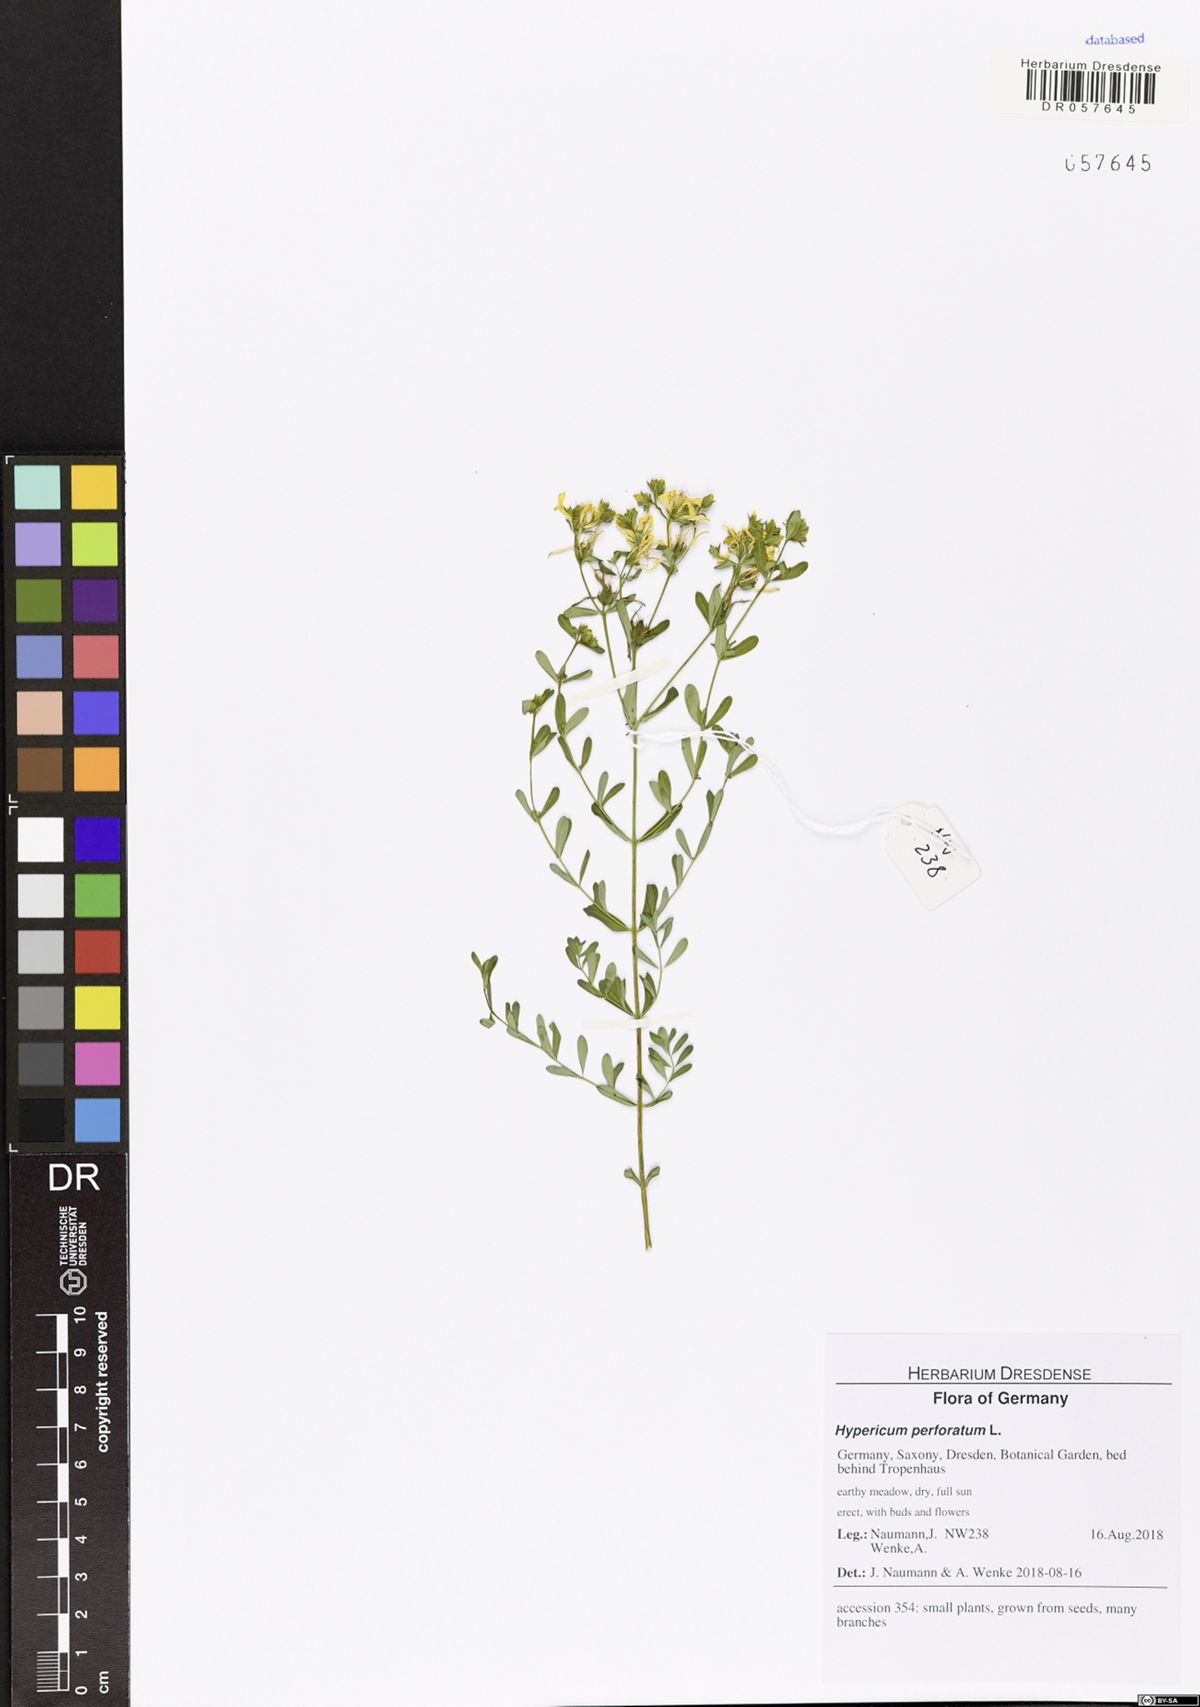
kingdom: Plantae
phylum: Tracheophyta
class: Magnoliopsida
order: Malpighiales
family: Hypericaceae
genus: Hypericum
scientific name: Hypericum perforatum
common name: Common st. johnswort
